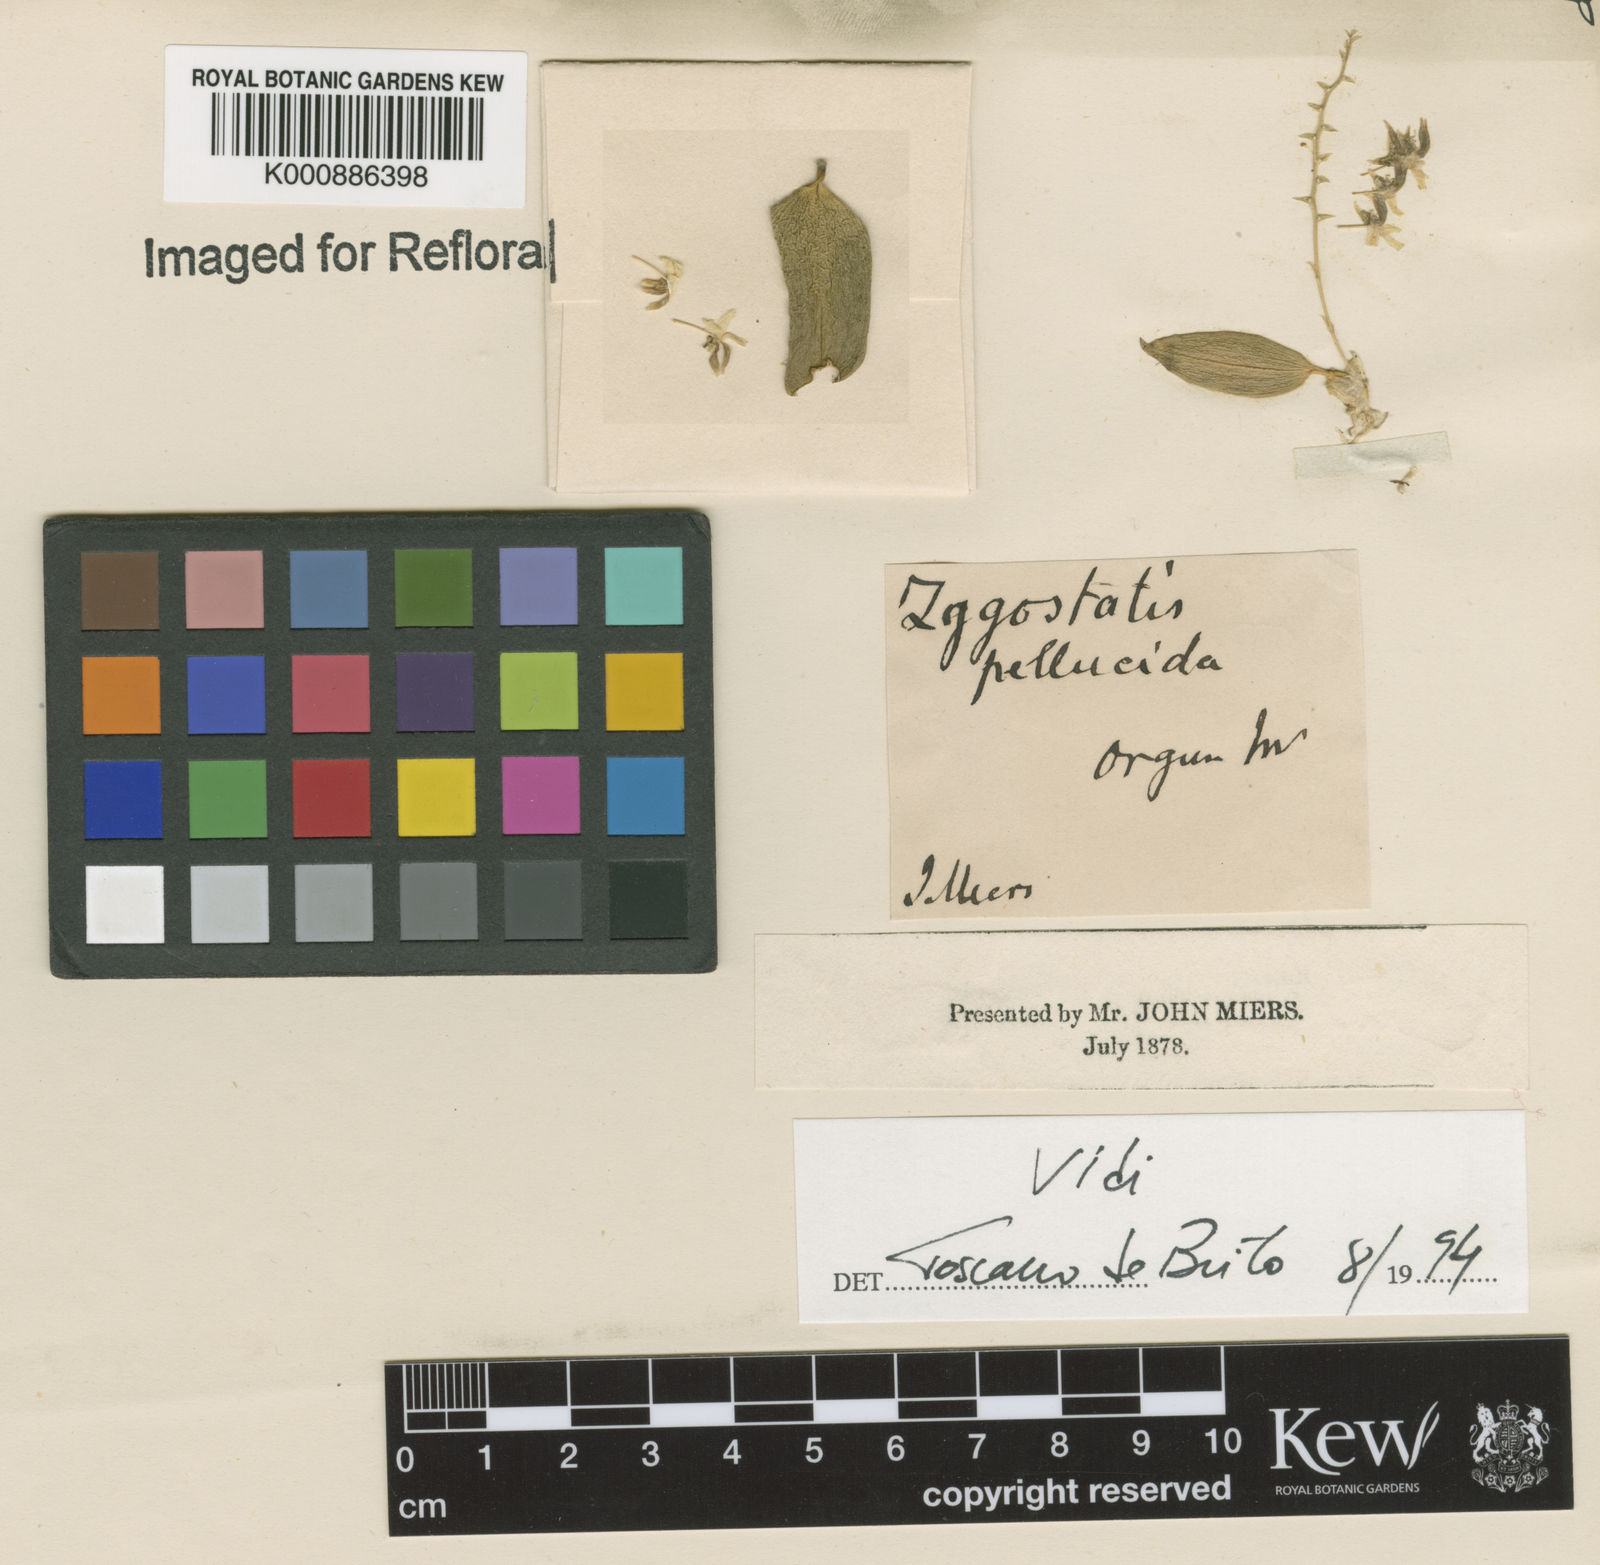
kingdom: Plantae
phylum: Tracheophyta
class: Liliopsida
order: Asparagales
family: Orchidaceae
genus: Zygostates
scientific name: Zygostates pellucida
